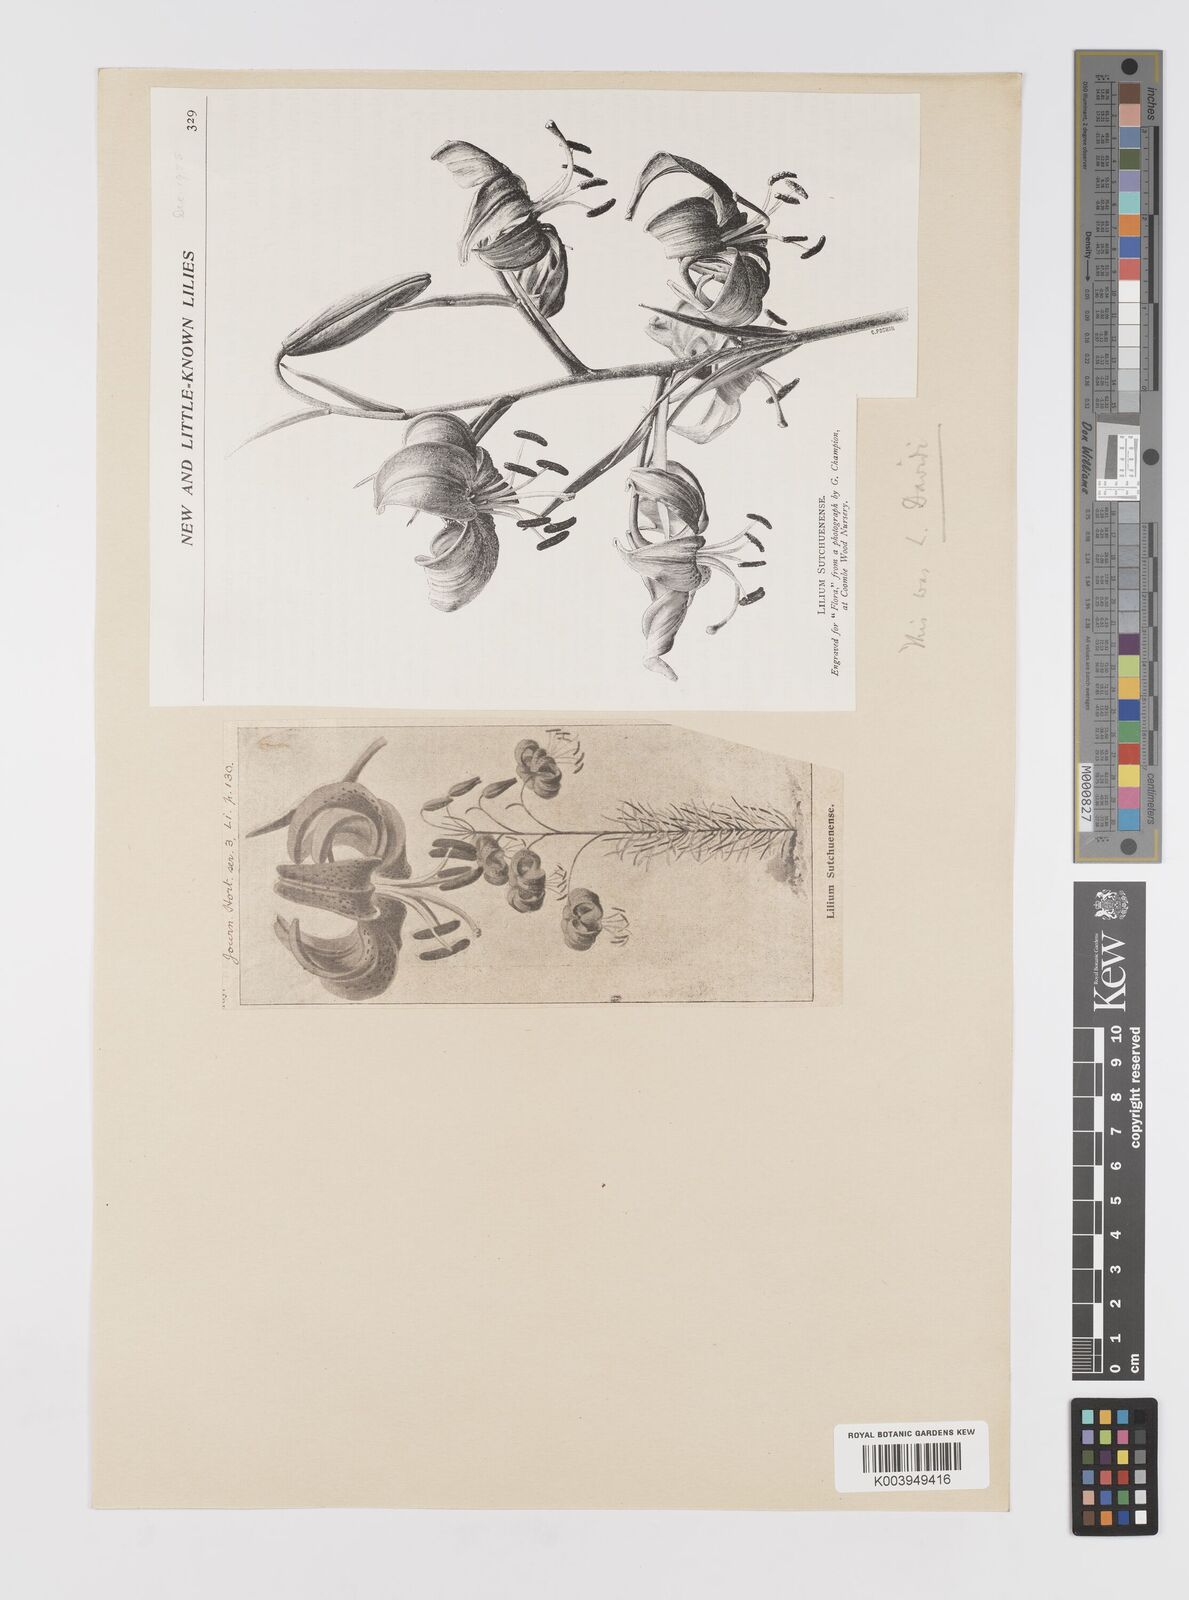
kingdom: Plantae
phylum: Tracheophyta
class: Liliopsida
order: Liliales
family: Liliaceae
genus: Lilium
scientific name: Lilium davidii
